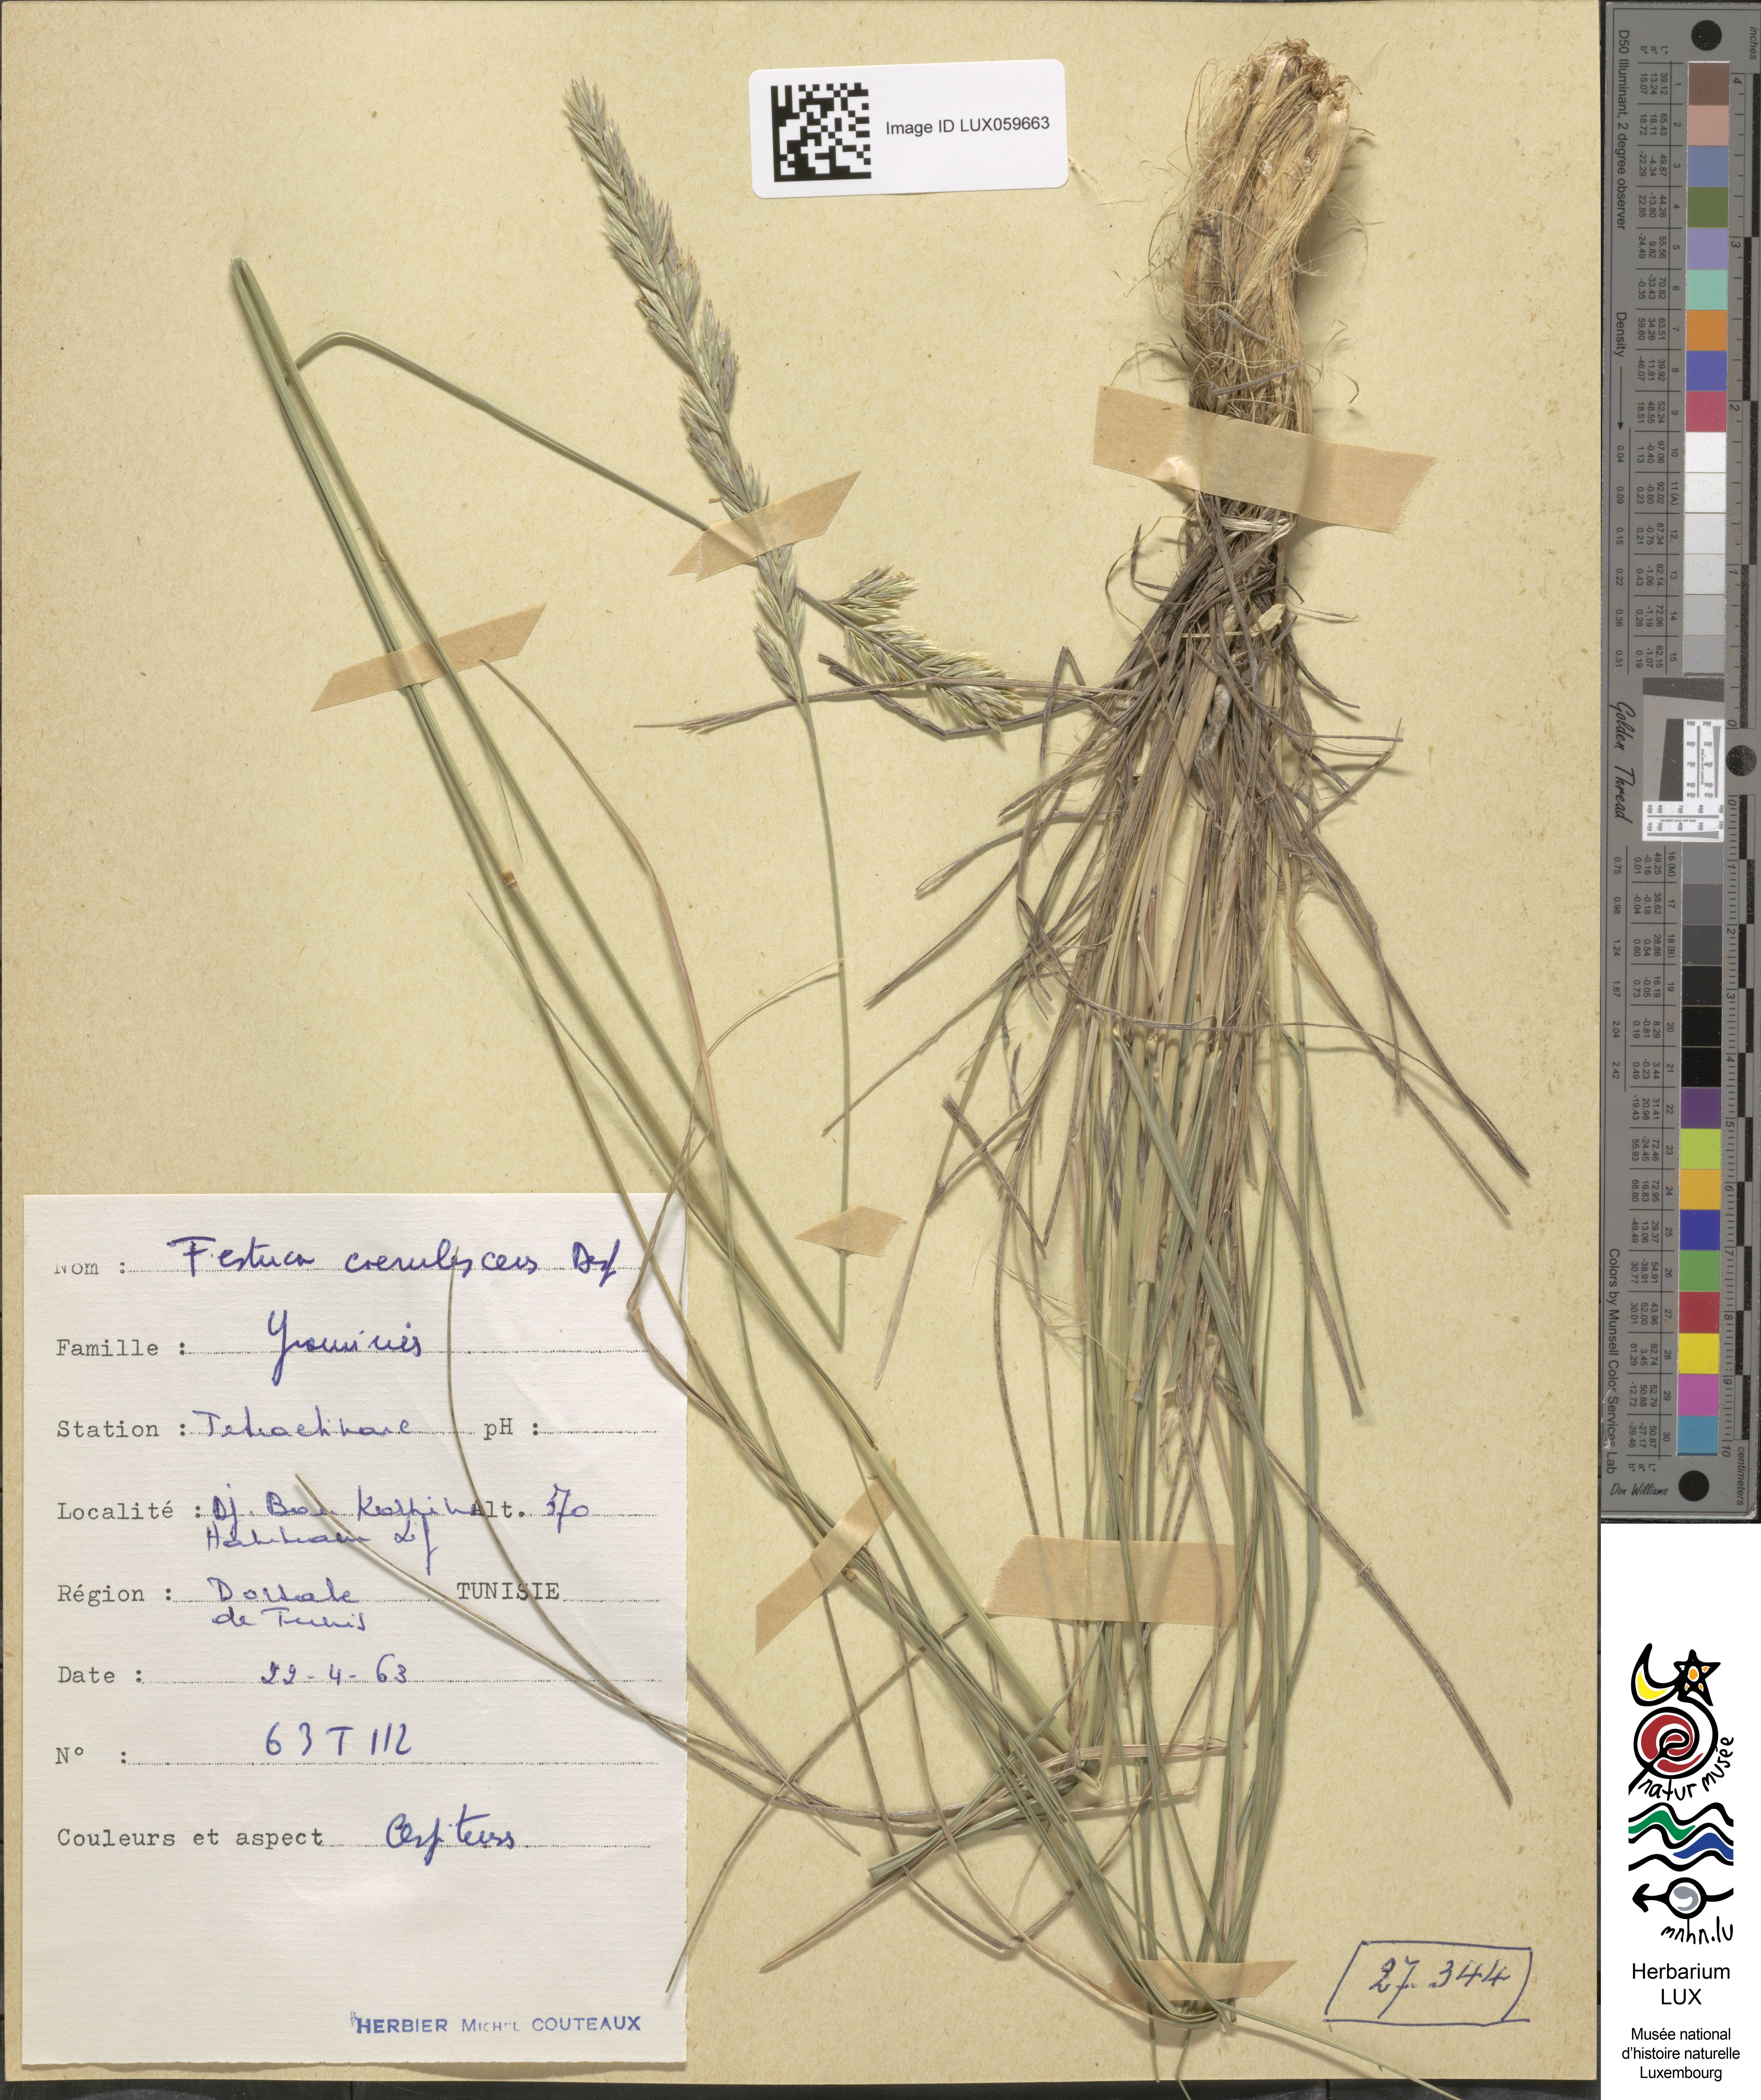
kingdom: Plantae
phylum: Tracheophyta
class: Magnoliopsida
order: Caryophyllales
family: Amaranthaceae
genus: Chenopodiastrum
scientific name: Chenopodiastrum murale
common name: Sowbane
